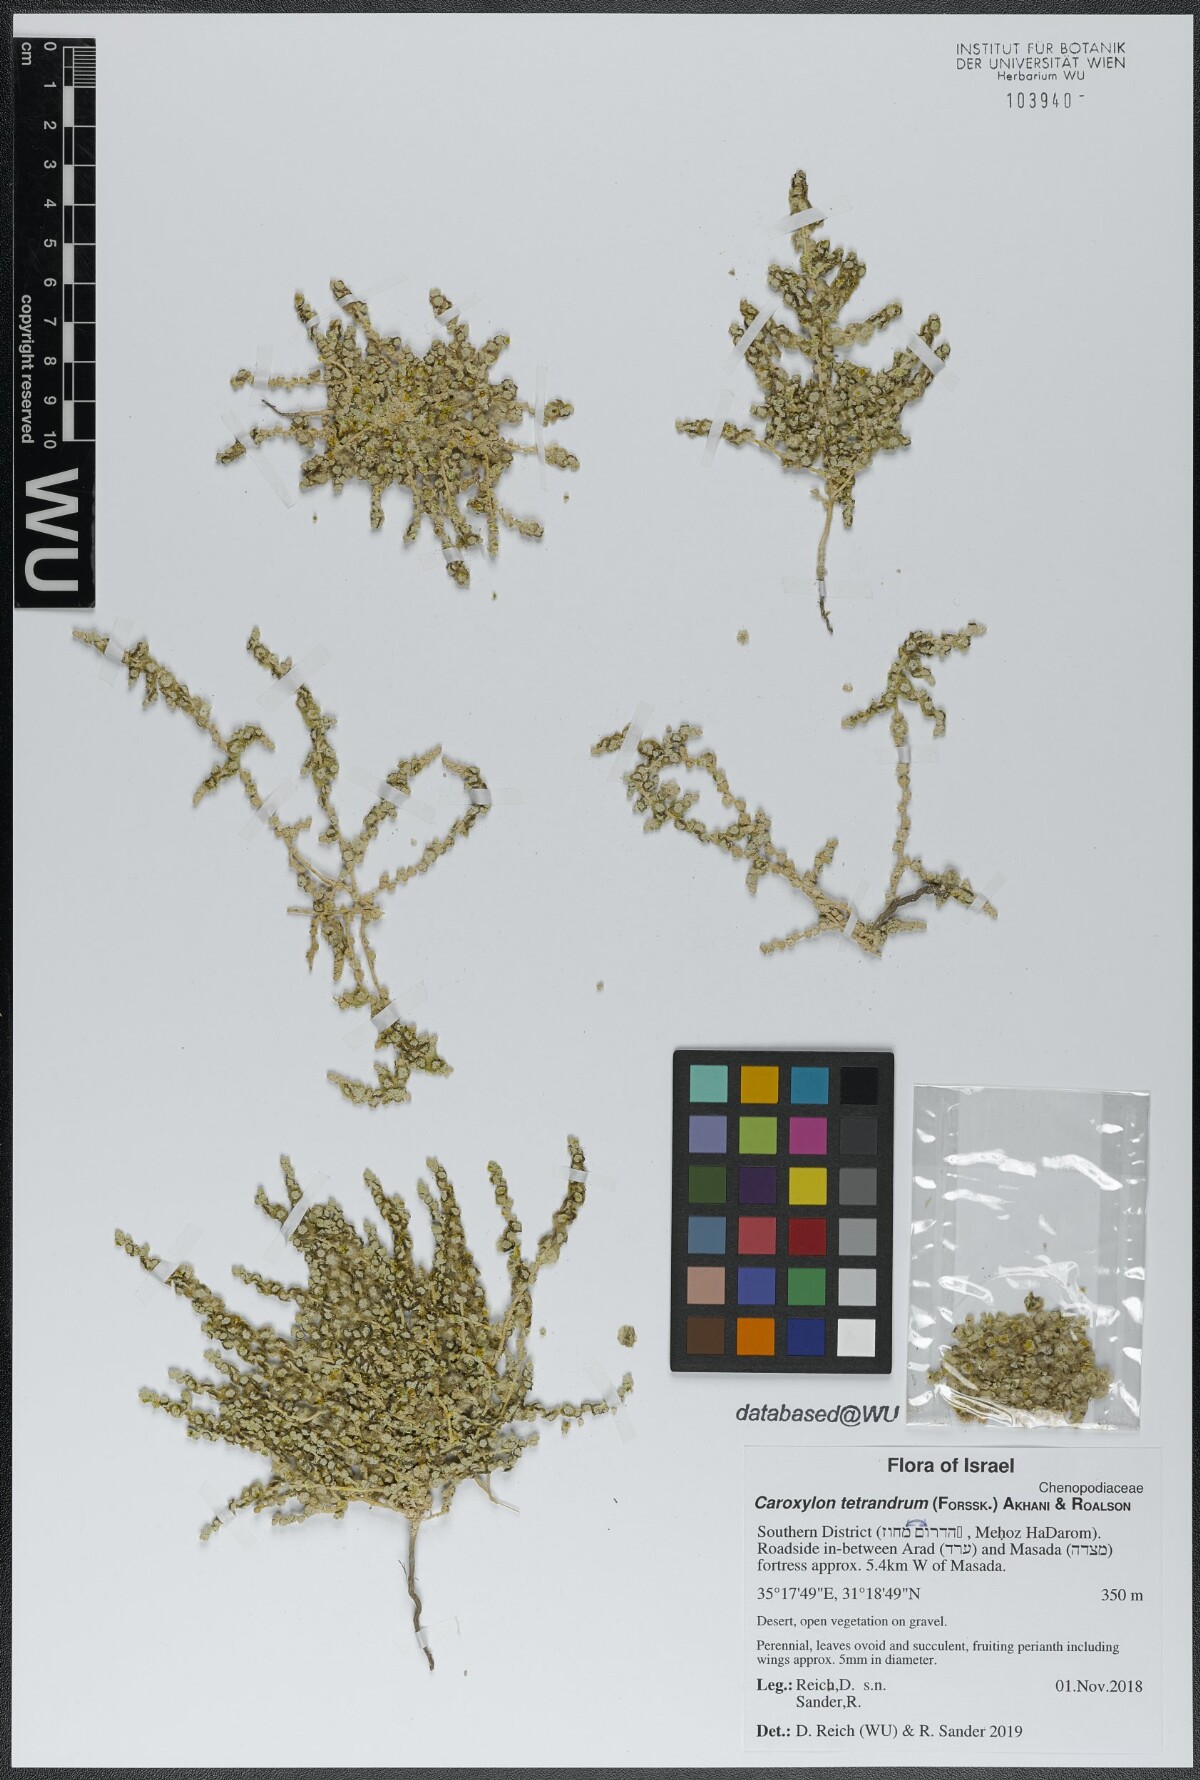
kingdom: Plantae
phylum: Tracheophyta
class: Magnoliopsida
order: Caryophyllales
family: Amaranthaceae
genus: Caroxylon
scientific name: Caroxylon tetrandrum
